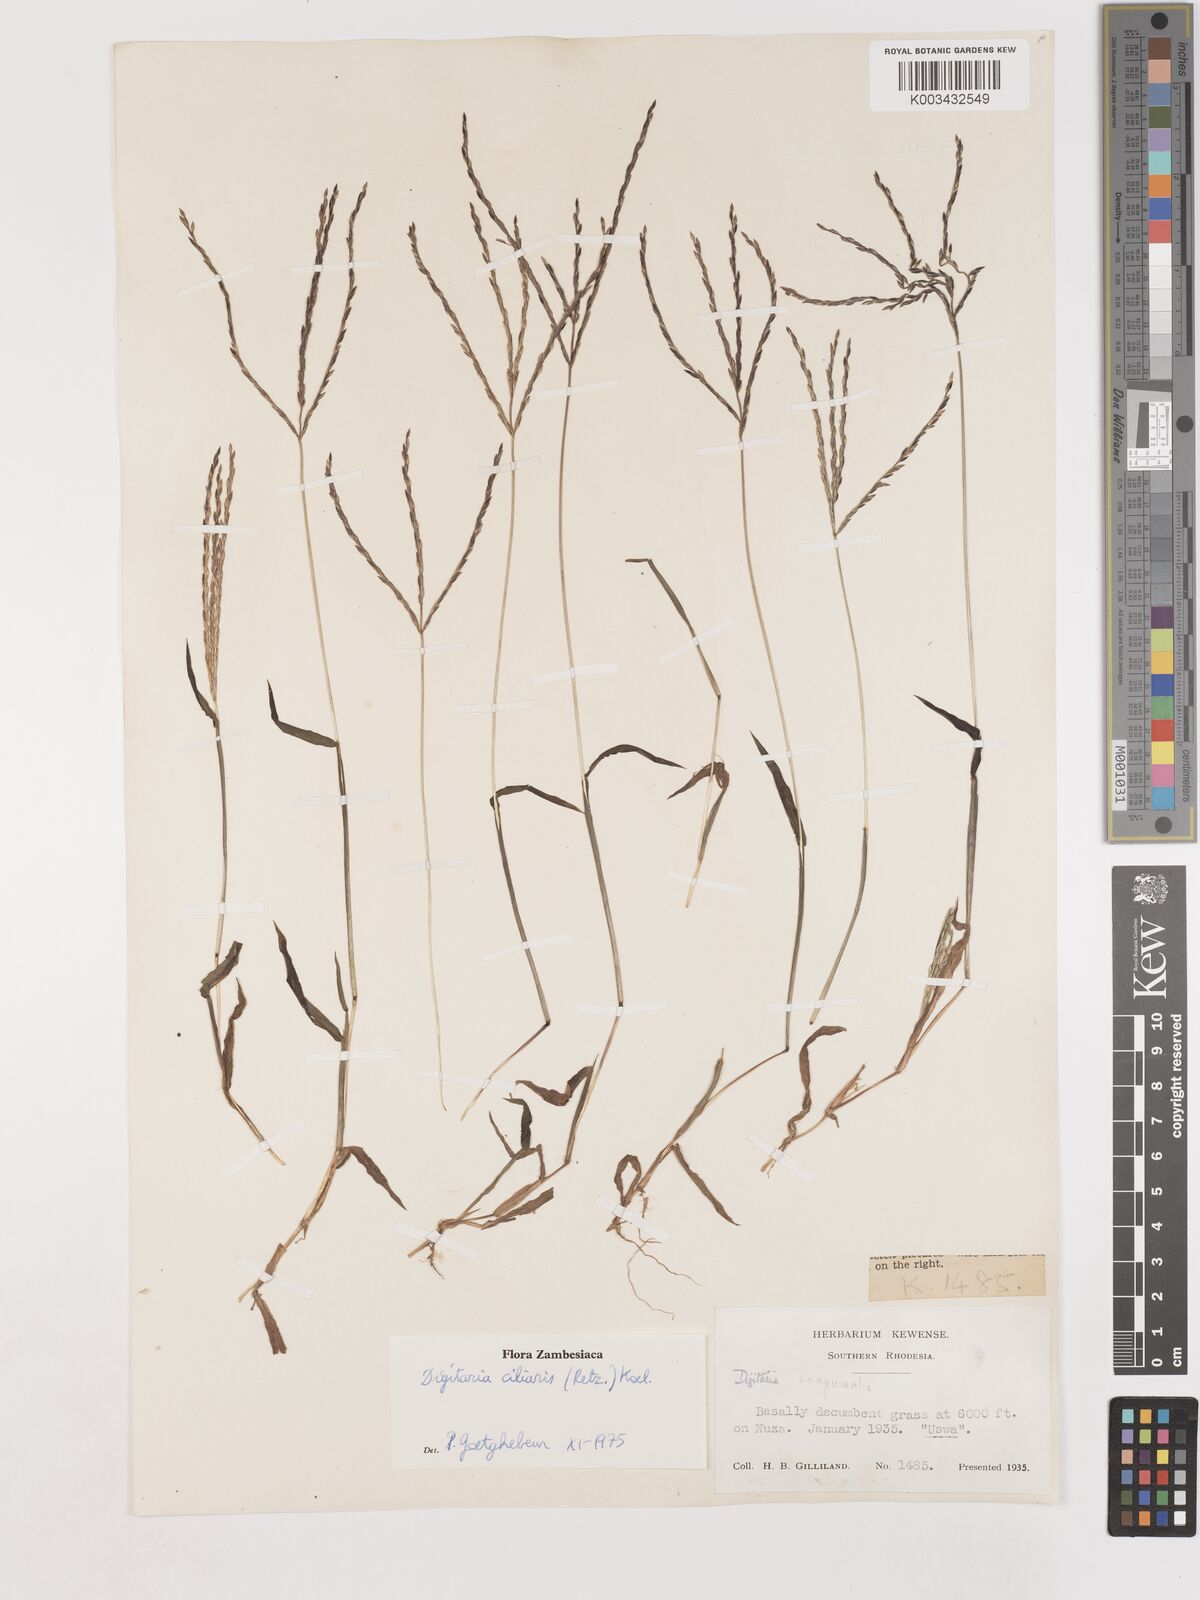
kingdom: Plantae
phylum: Tracheophyta
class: Liliopsida
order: Poales
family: Poaceae
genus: Digitaria
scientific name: Digitaria spec
